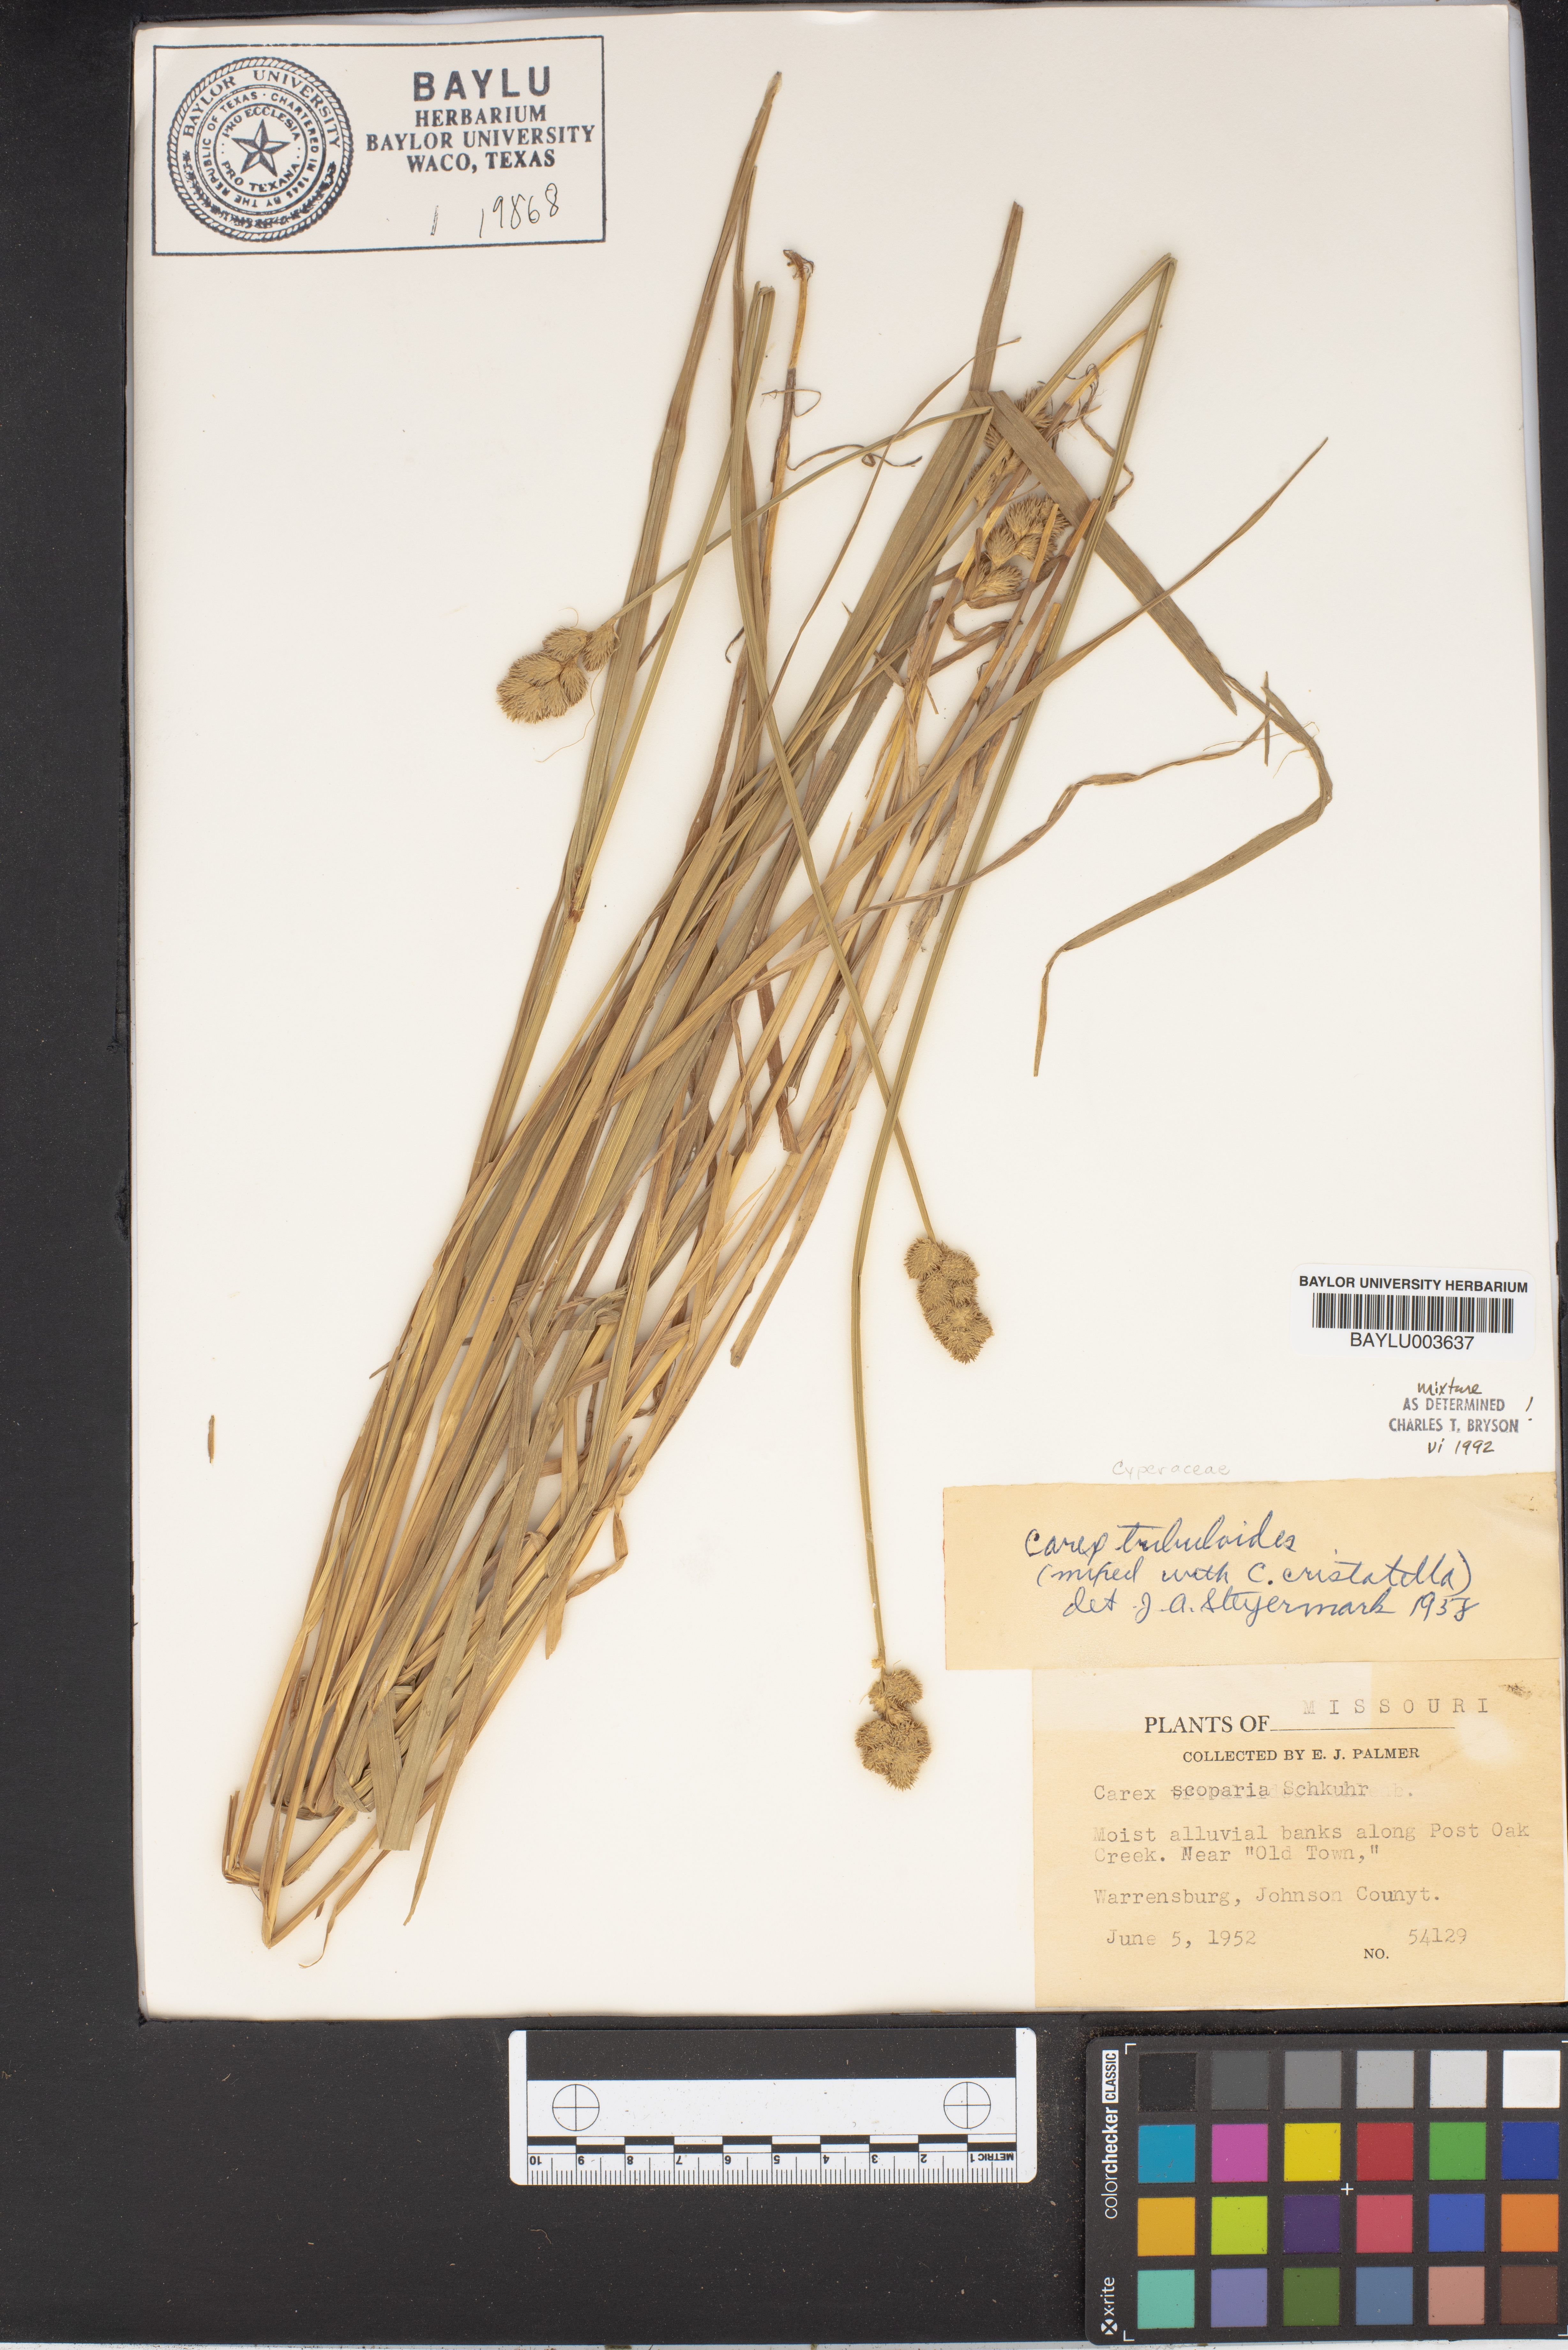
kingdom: Plantae
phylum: Tracheophyta
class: Liliopsida
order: Poales
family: Cyperaceae
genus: Carex
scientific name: Carex
